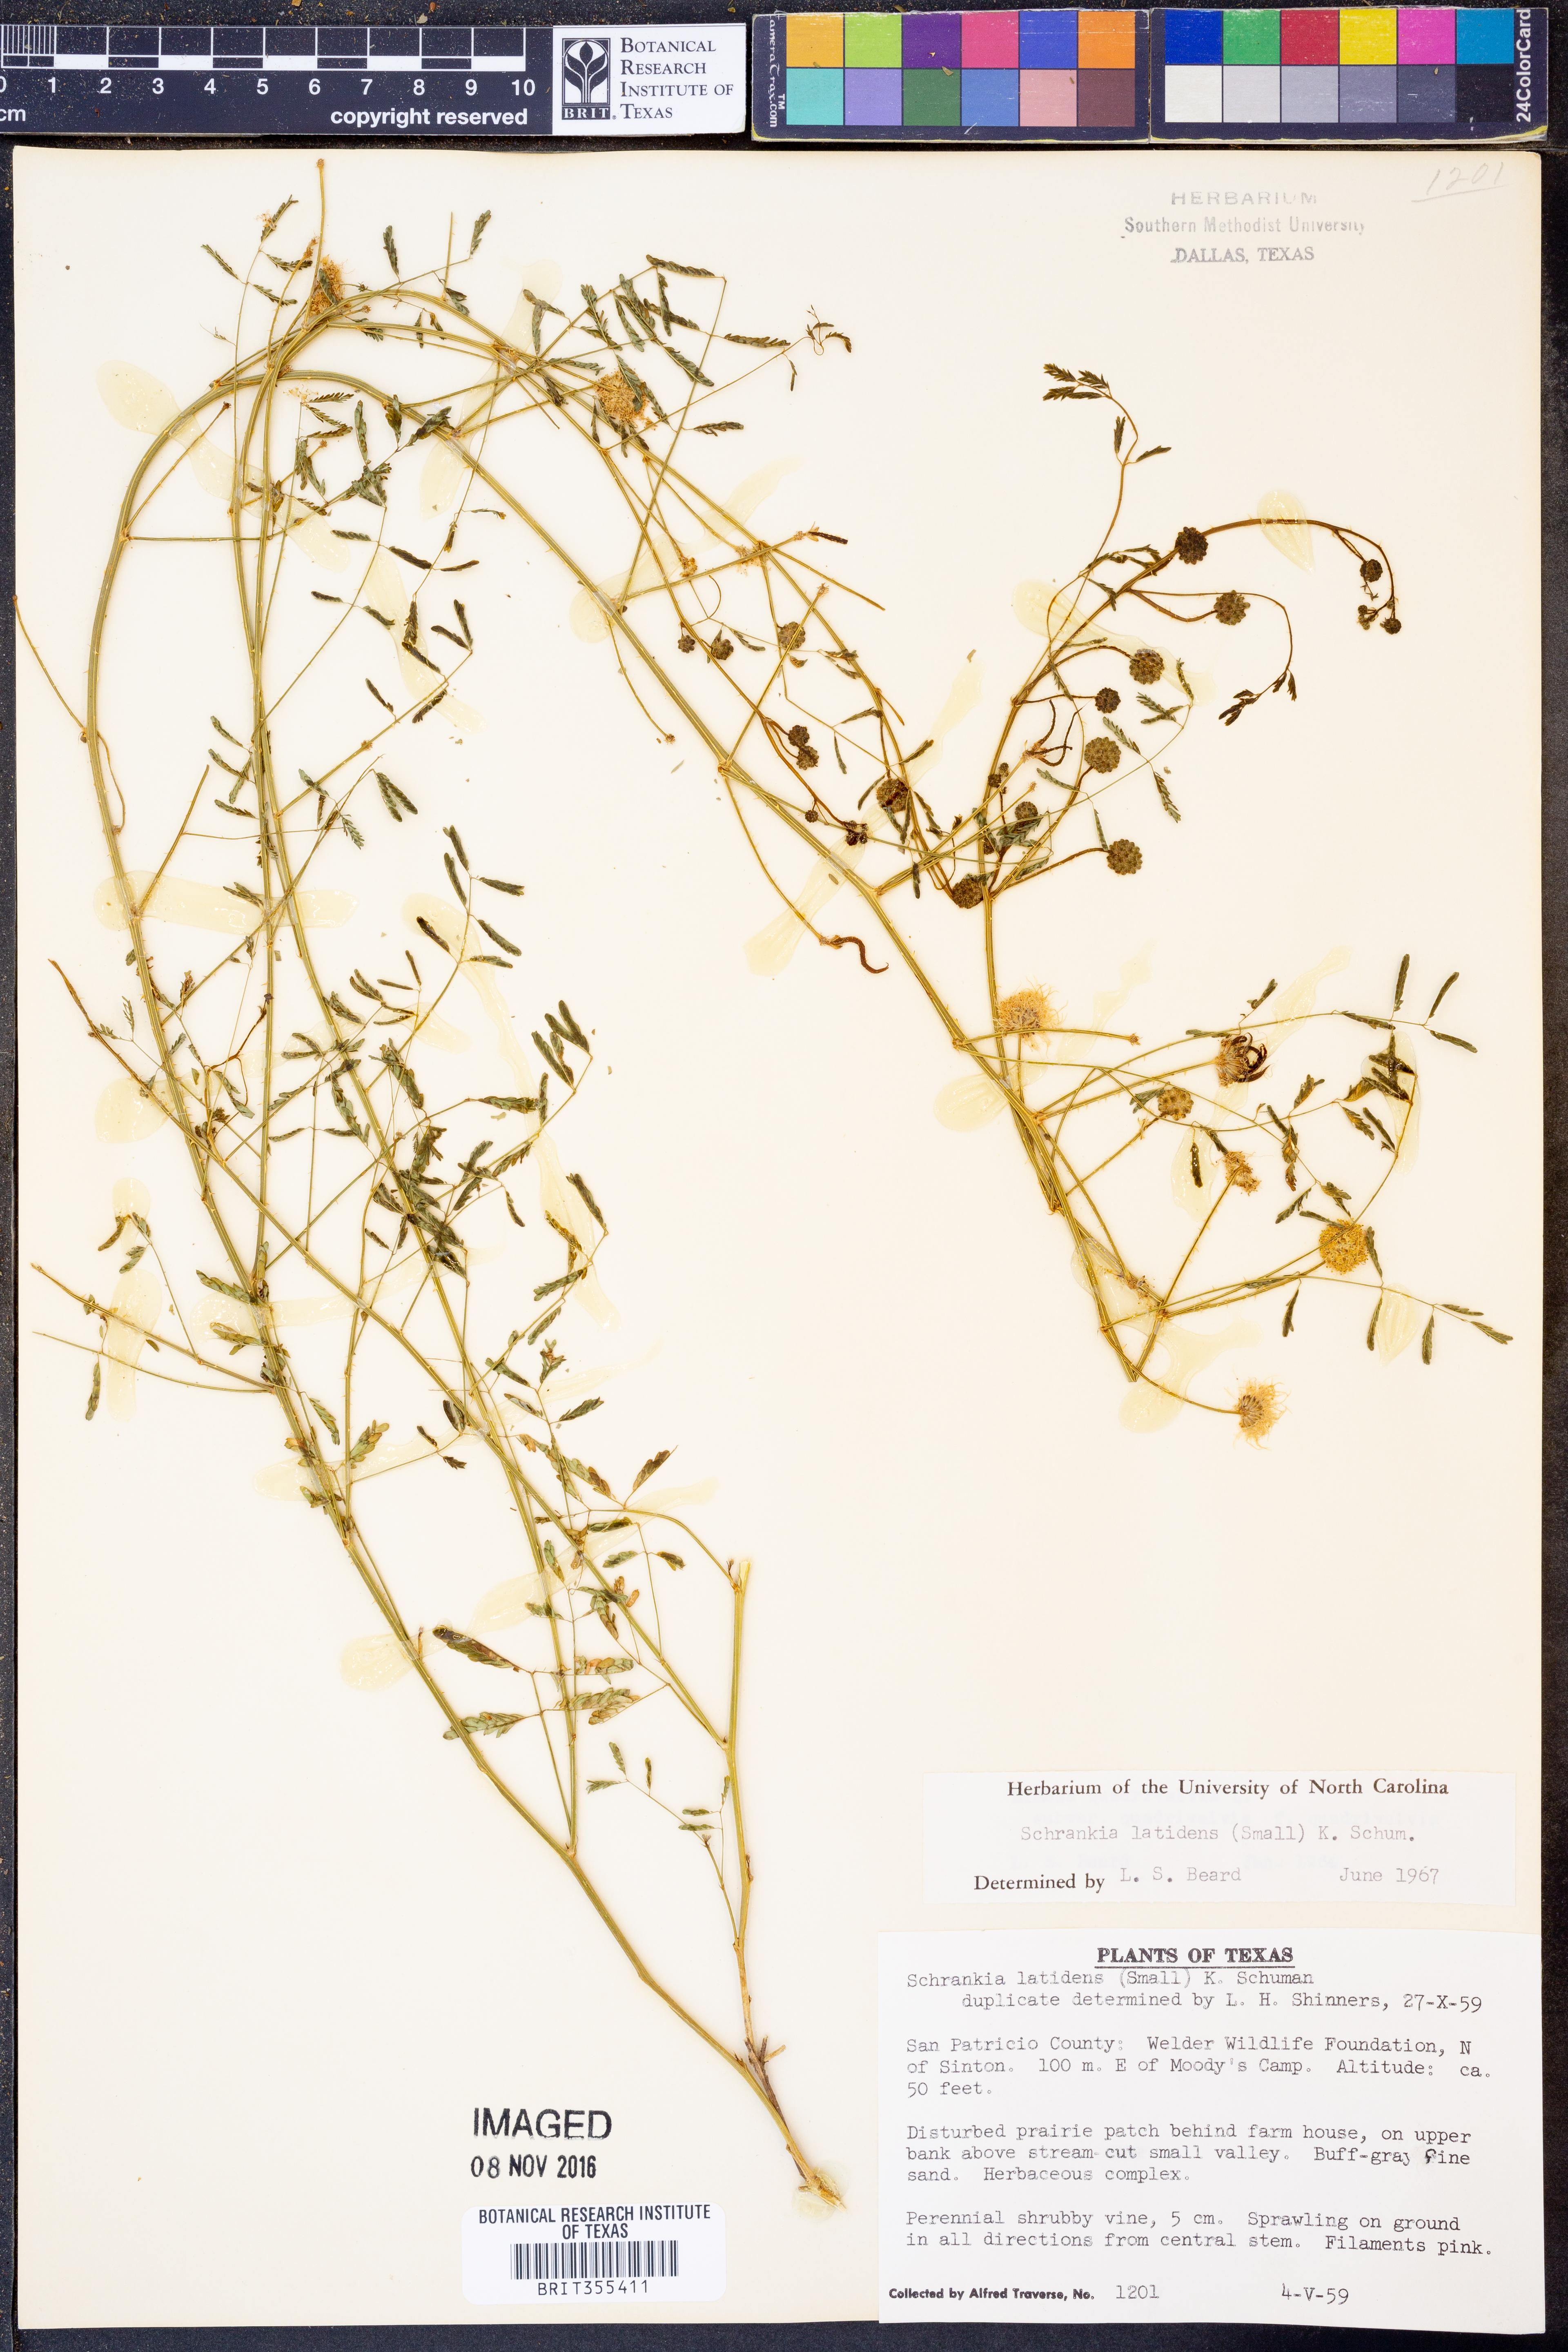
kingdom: Plantae
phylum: Tracheophyta
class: Magnoliopsida
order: Fabales
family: Fabaceae
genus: Mimosa
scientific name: Mimosa quadrivalvis
